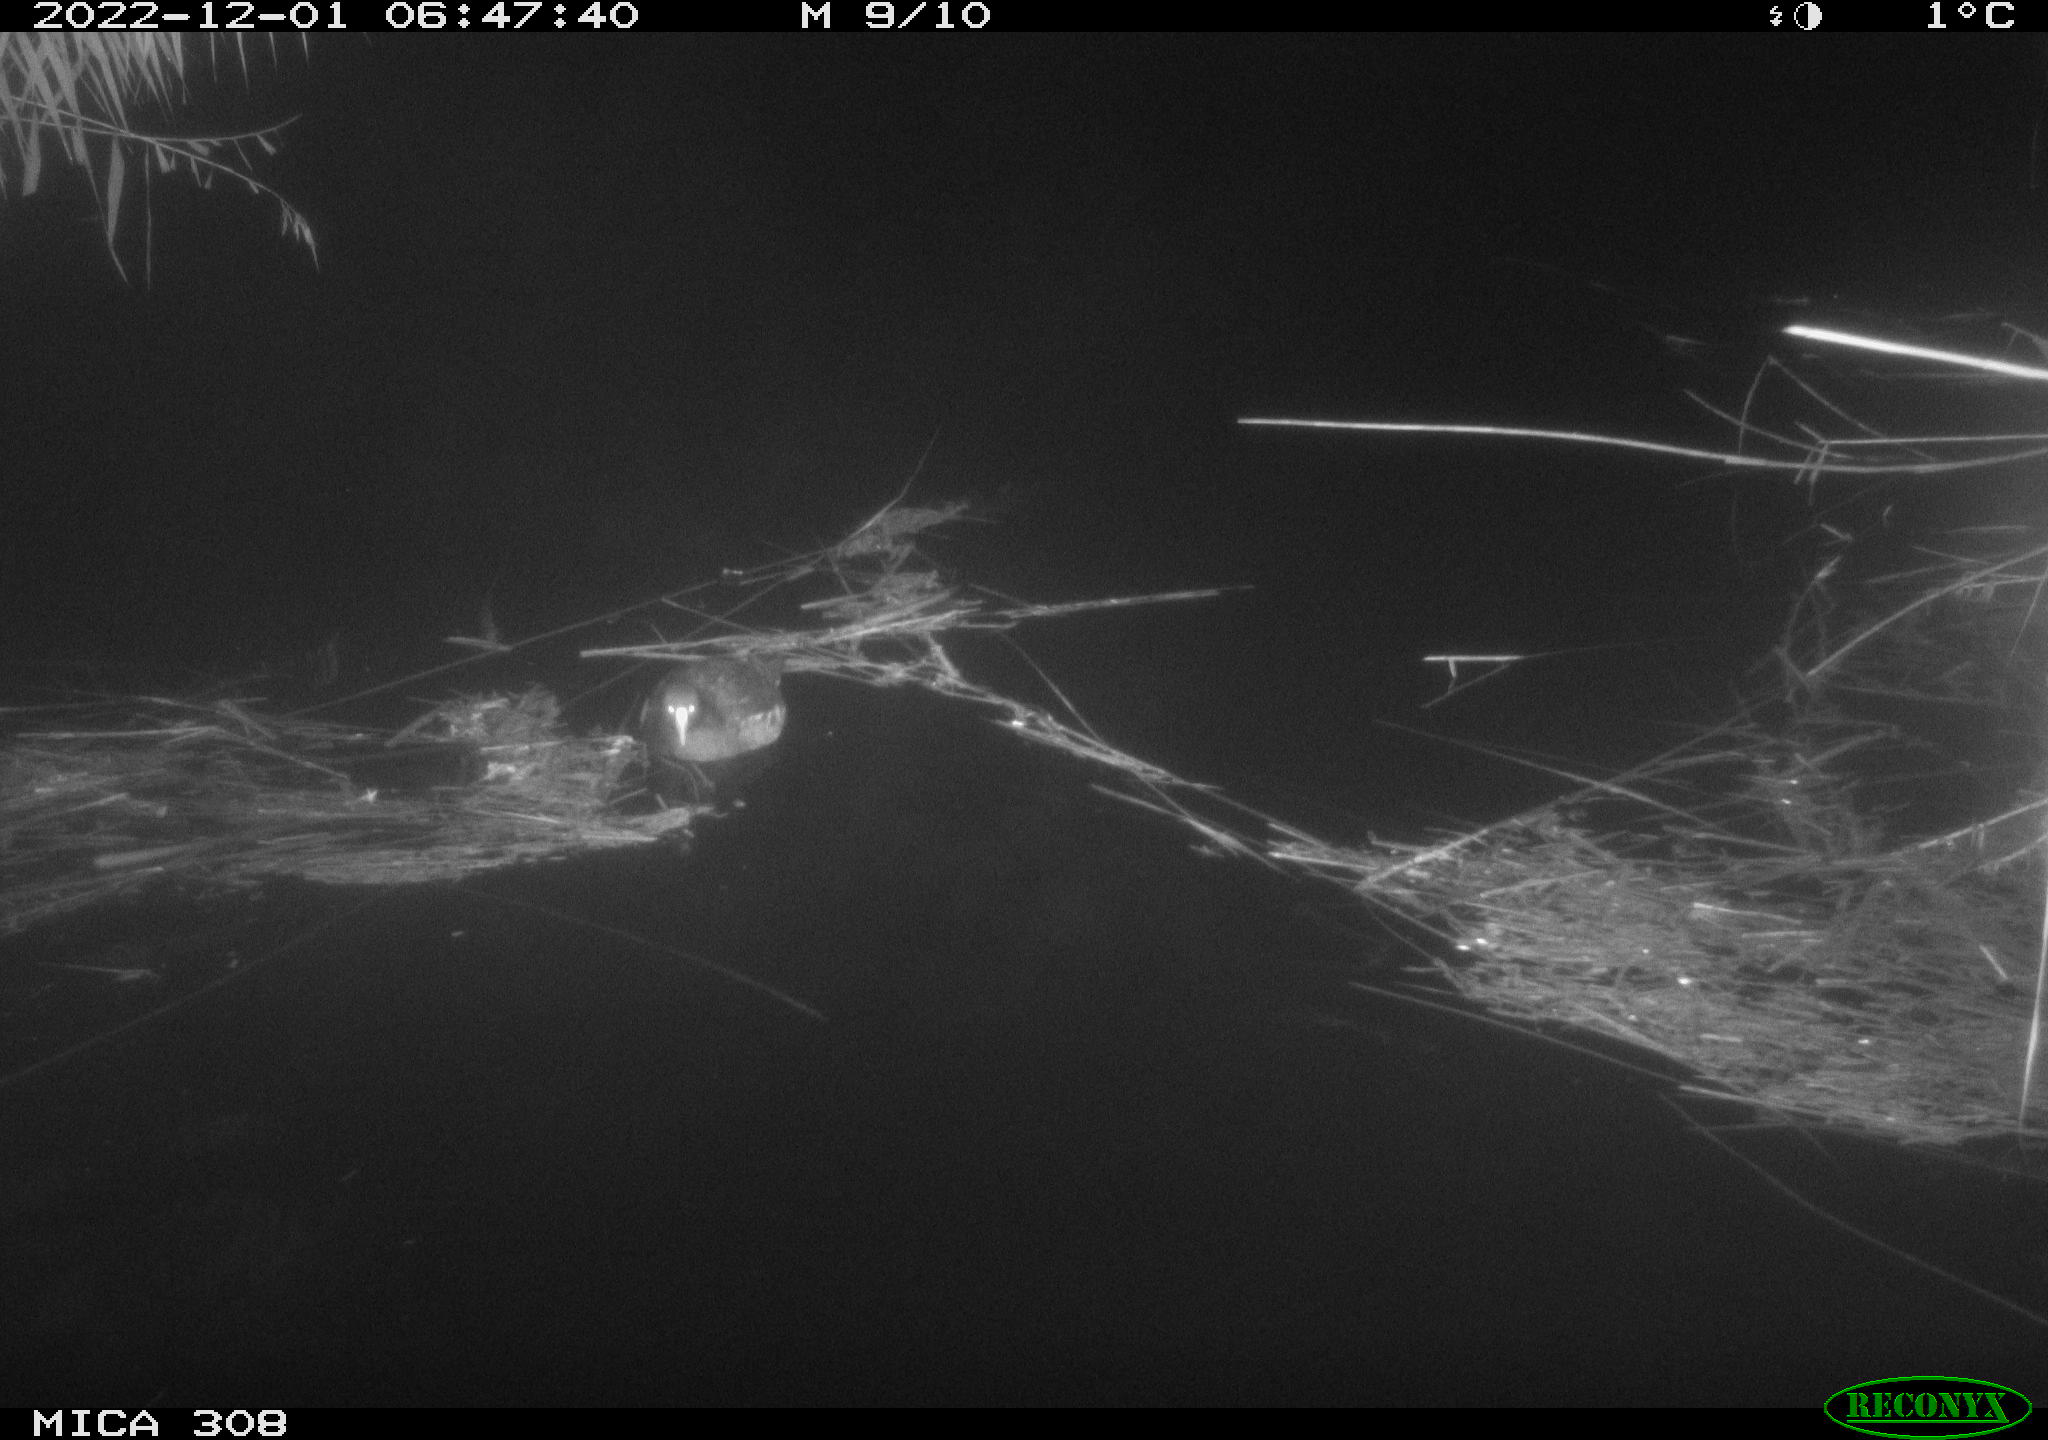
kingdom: Animalia
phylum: Chordata
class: Aves
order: Gruiformes
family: Rallidae
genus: Gallinula
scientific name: Gallinula chloropus
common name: Common moorhen
